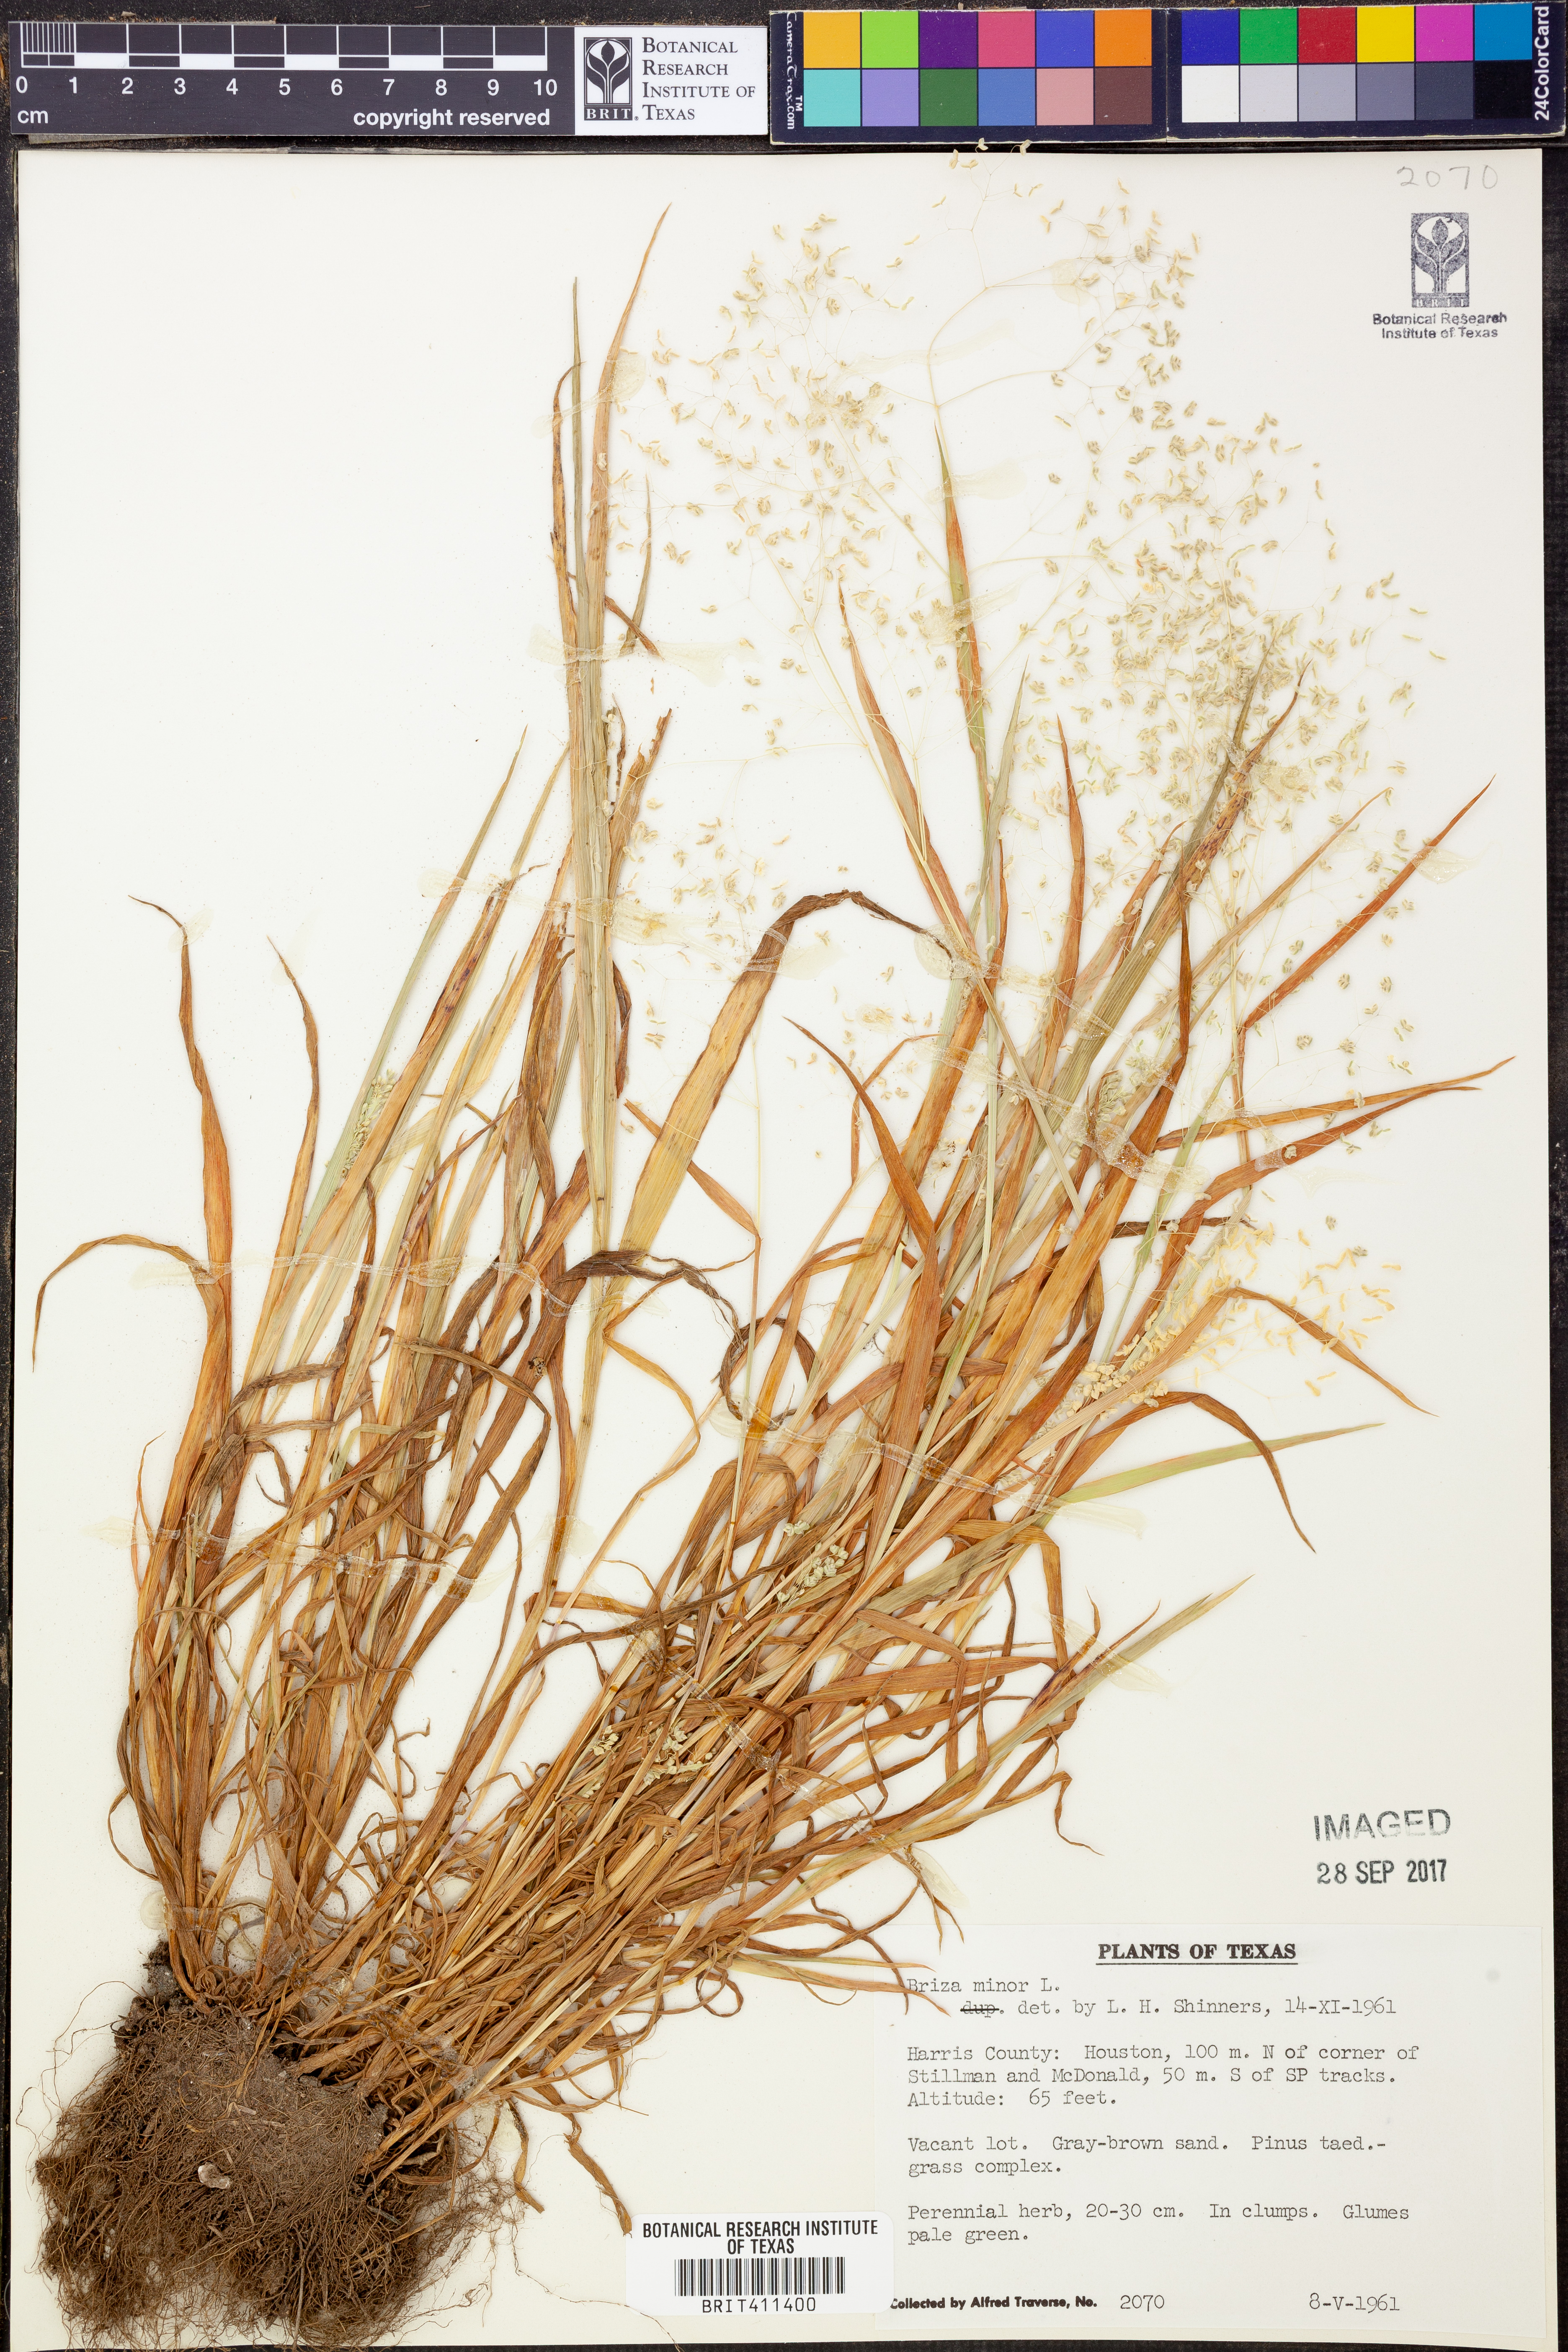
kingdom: Plantae
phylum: Tracheophyta
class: Liliopsida
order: Poales
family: Poaceae
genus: Briza
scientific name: Briza minor
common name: Lesser quaking-grass
